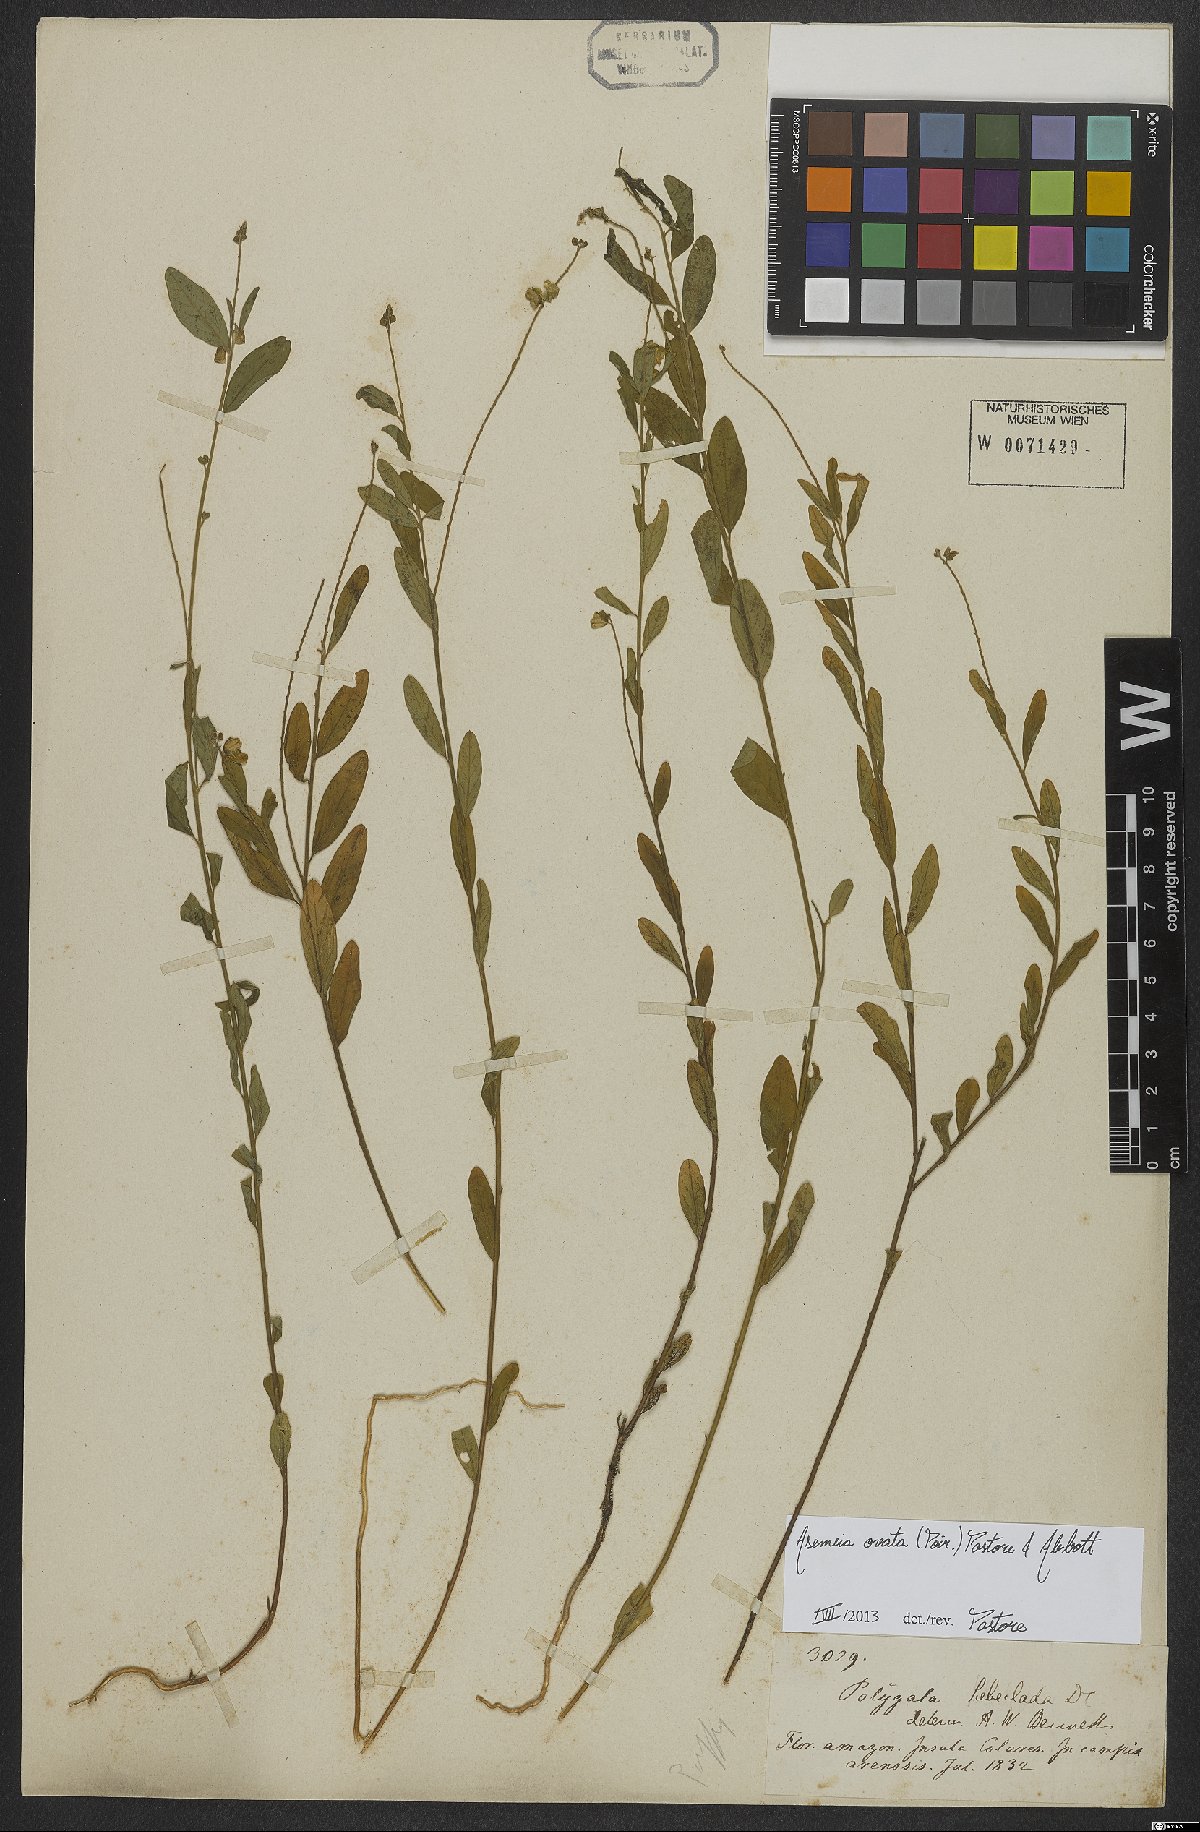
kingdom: Plantae
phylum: Tracheophyta
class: Magnoliopsida
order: Fabales
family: Polygalaceae
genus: Asemeia
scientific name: Asemeia ovata
